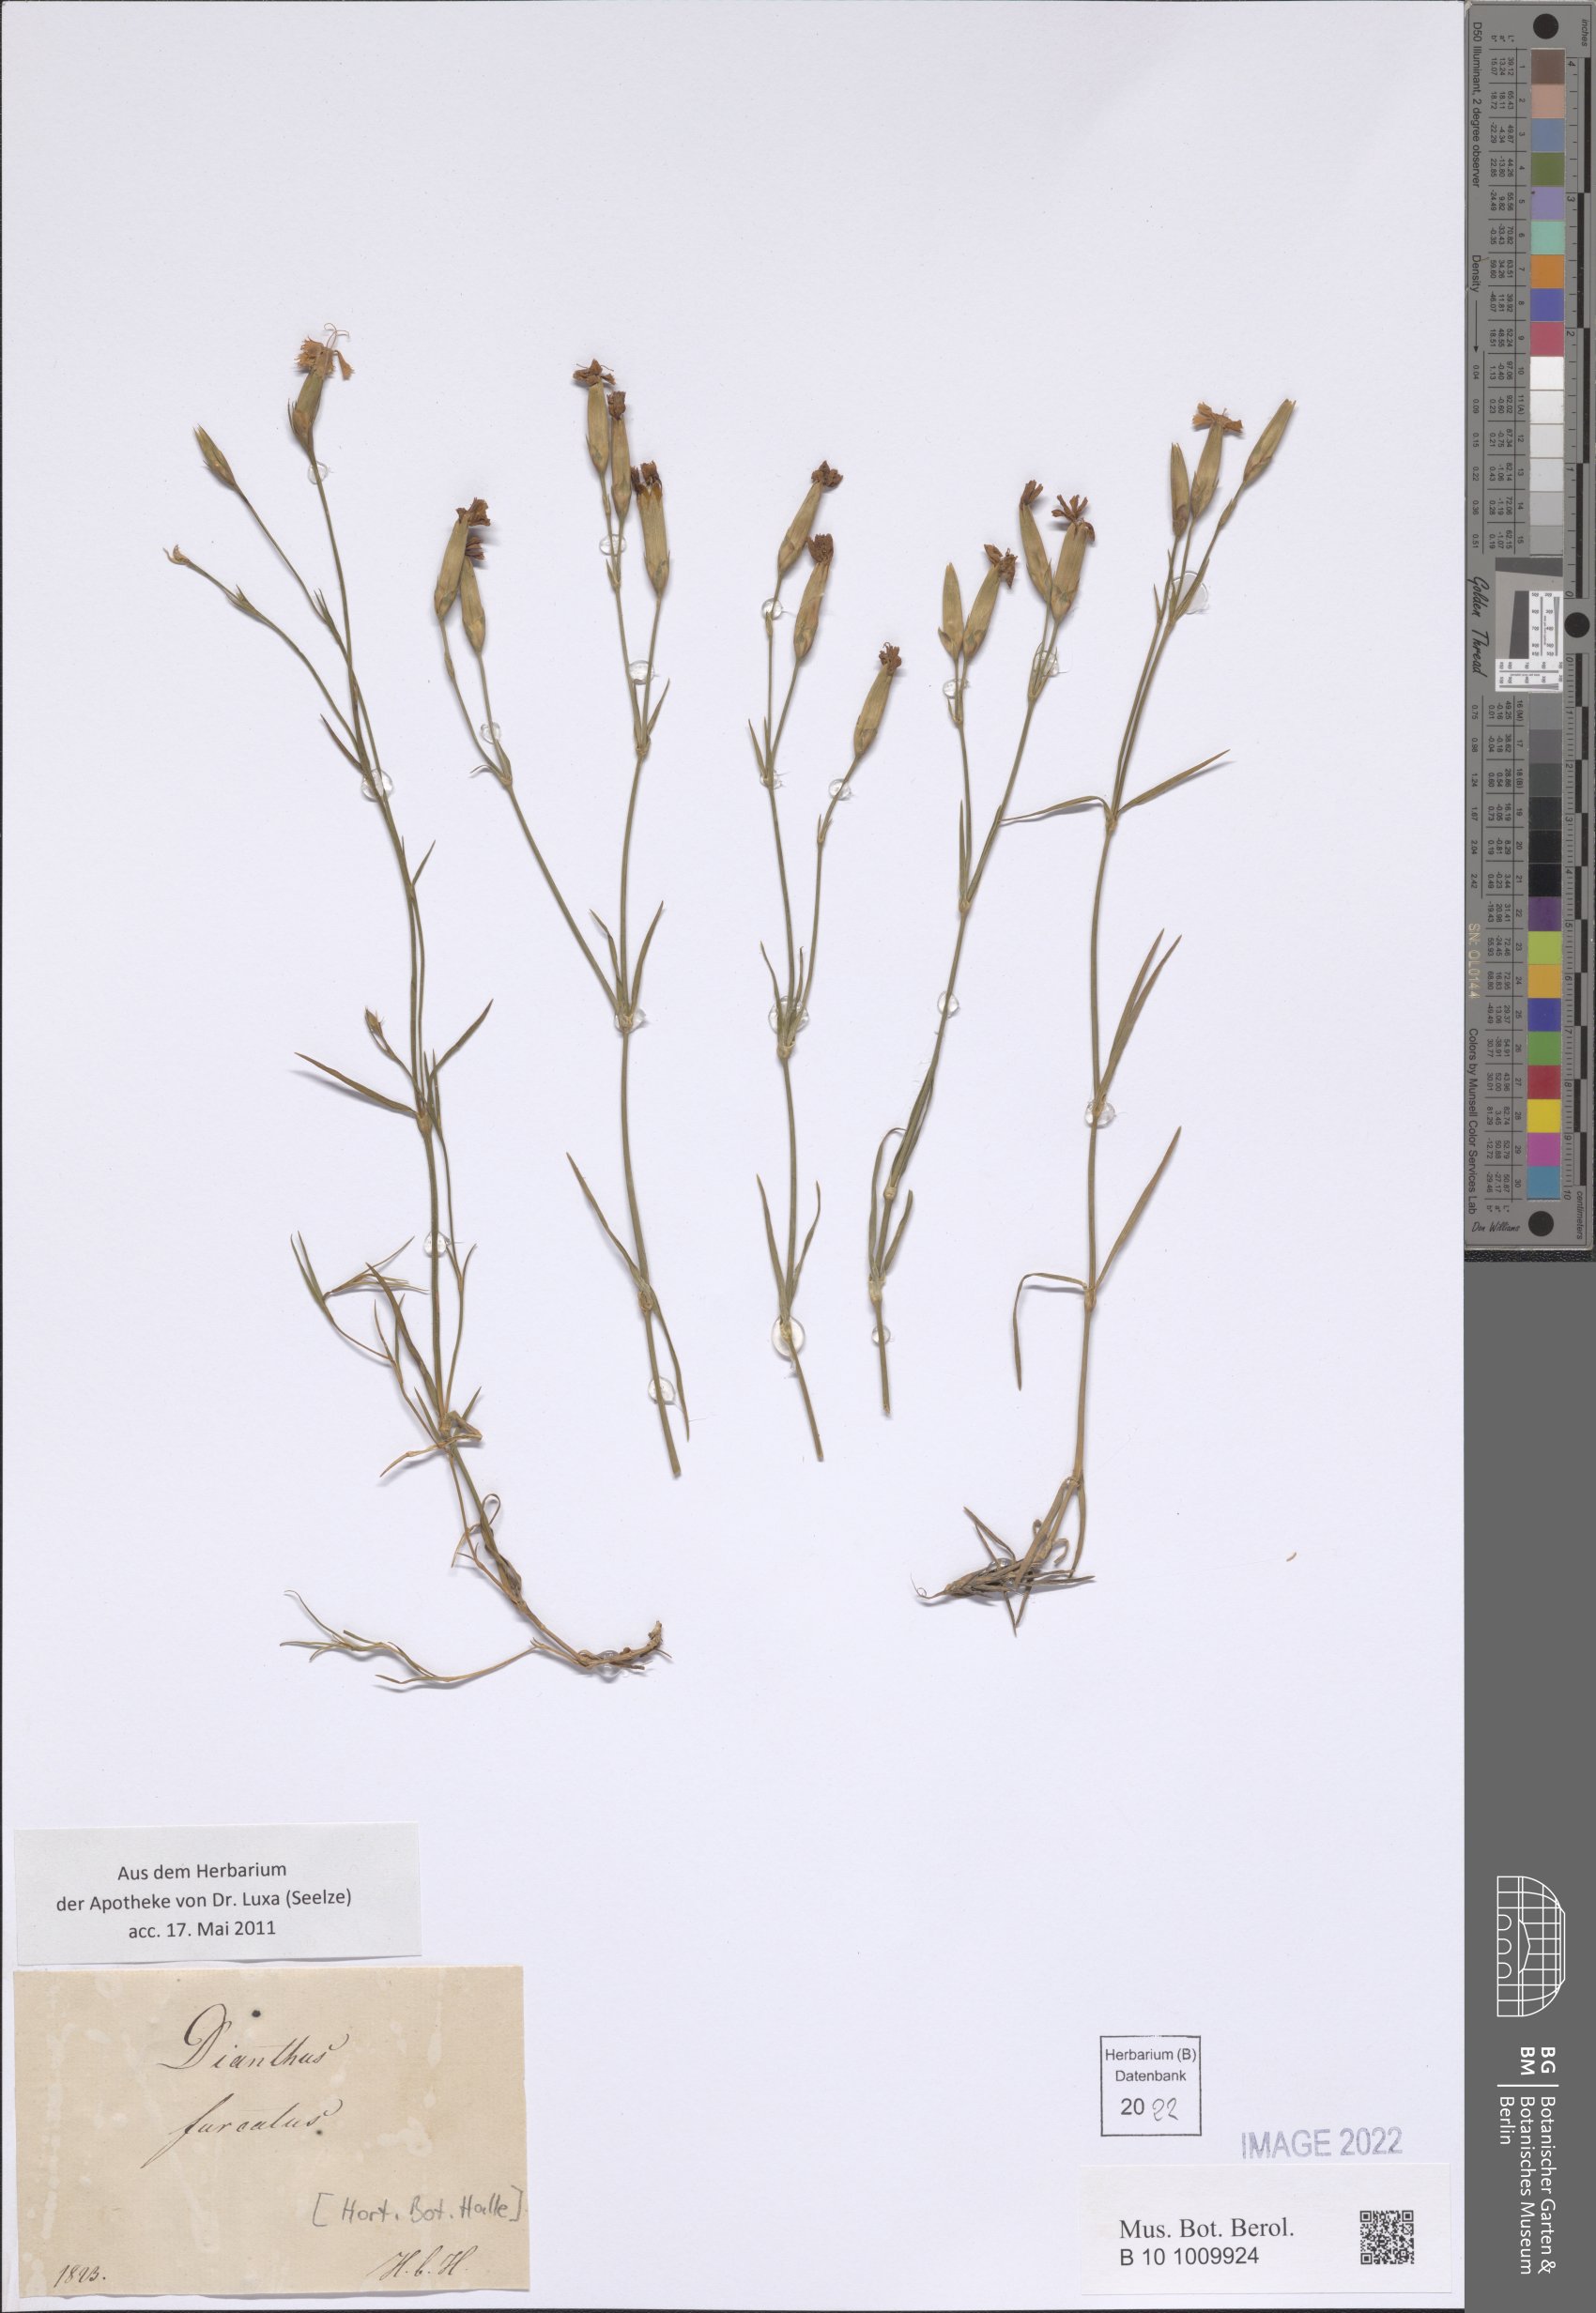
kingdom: Plantae
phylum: Tracheophyta
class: Magnoliopsida
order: Caryophyllales
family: Caryophyllaceae
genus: Dianthus
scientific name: Dianthus furcatus
